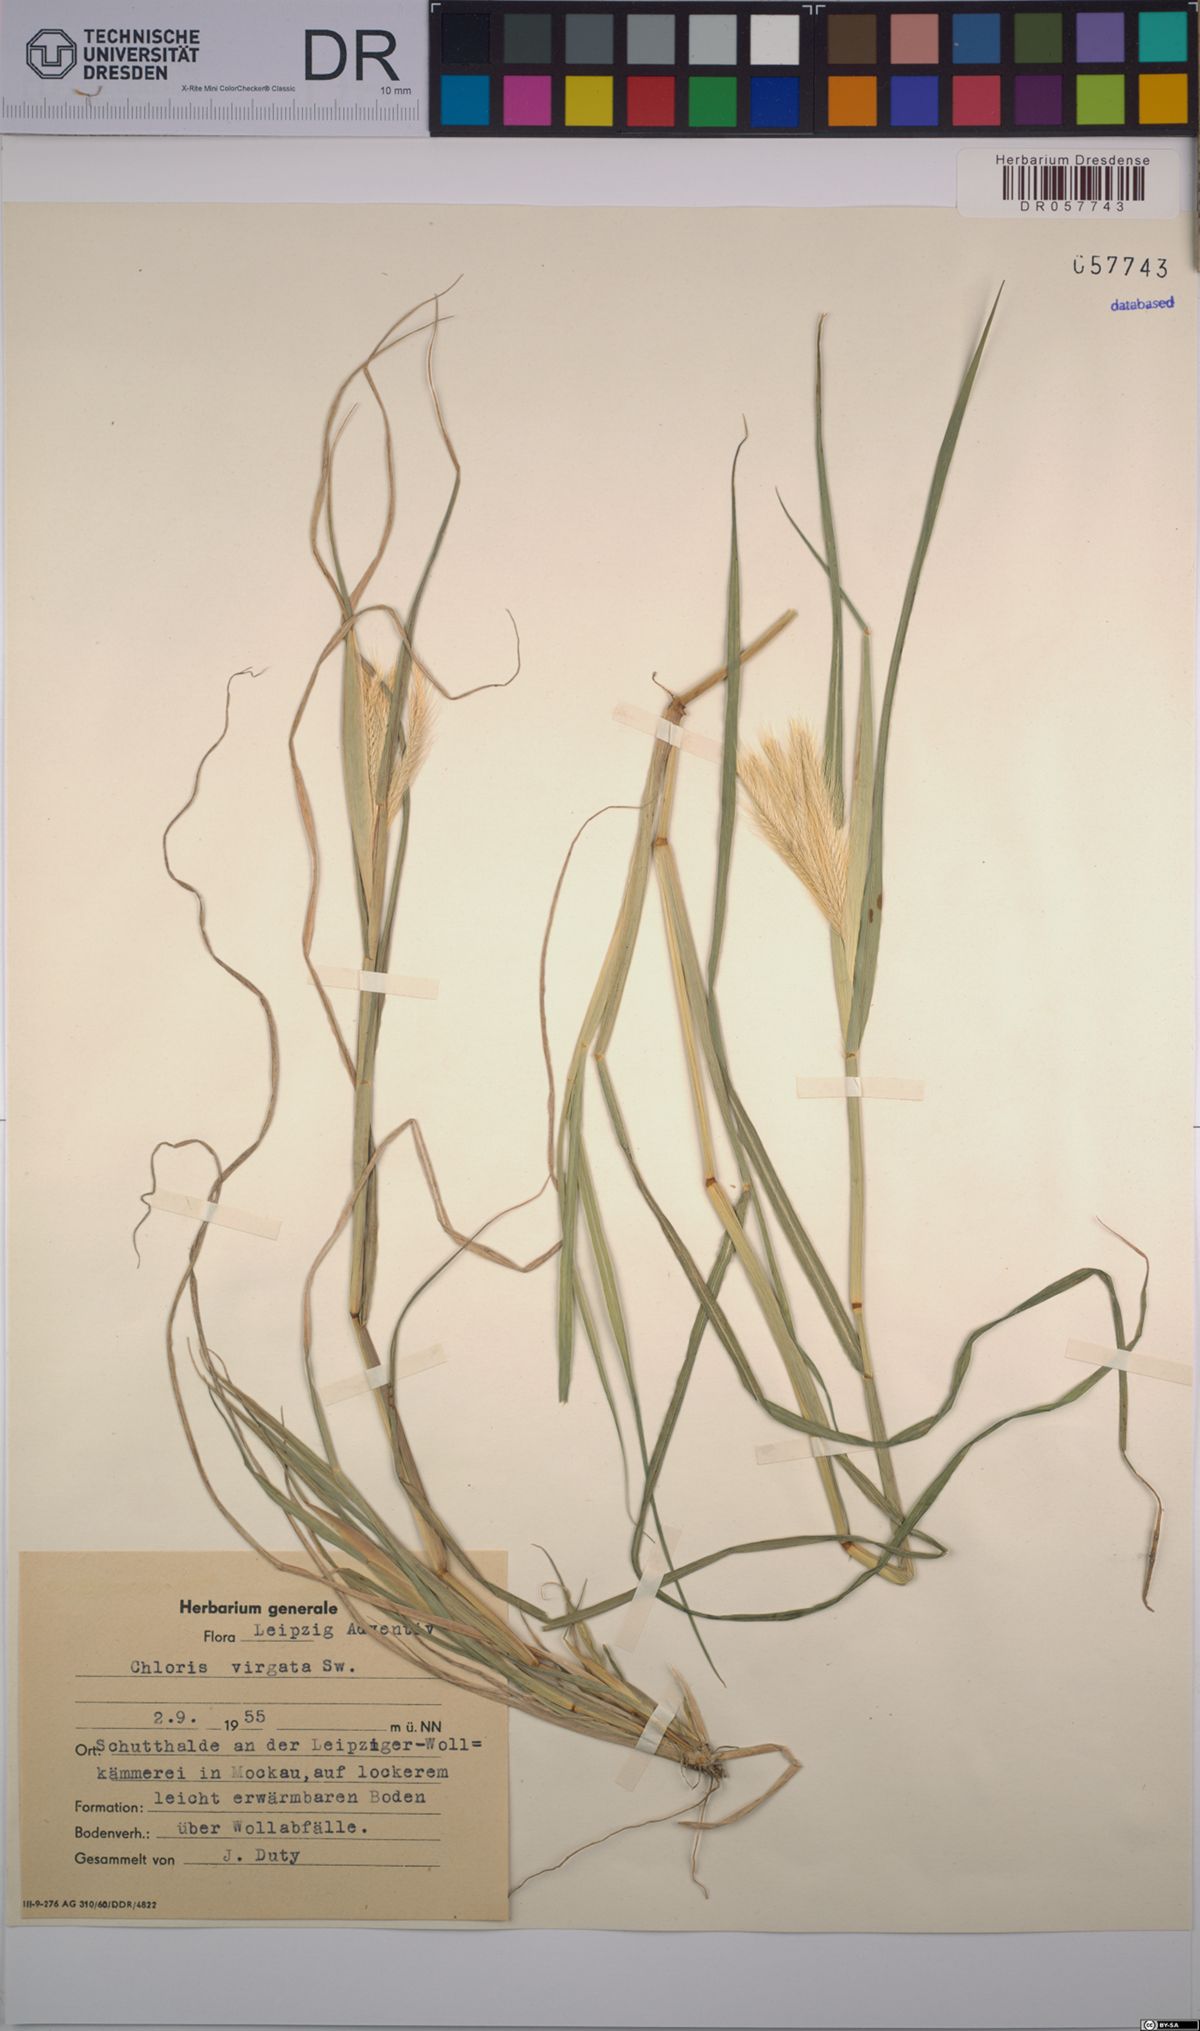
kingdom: Plantae
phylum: Tracheophyta
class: Liliopsida
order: Poales
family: Poaceae
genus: Chloris
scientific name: Chloris virgata
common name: Feathery rhodes-grass
